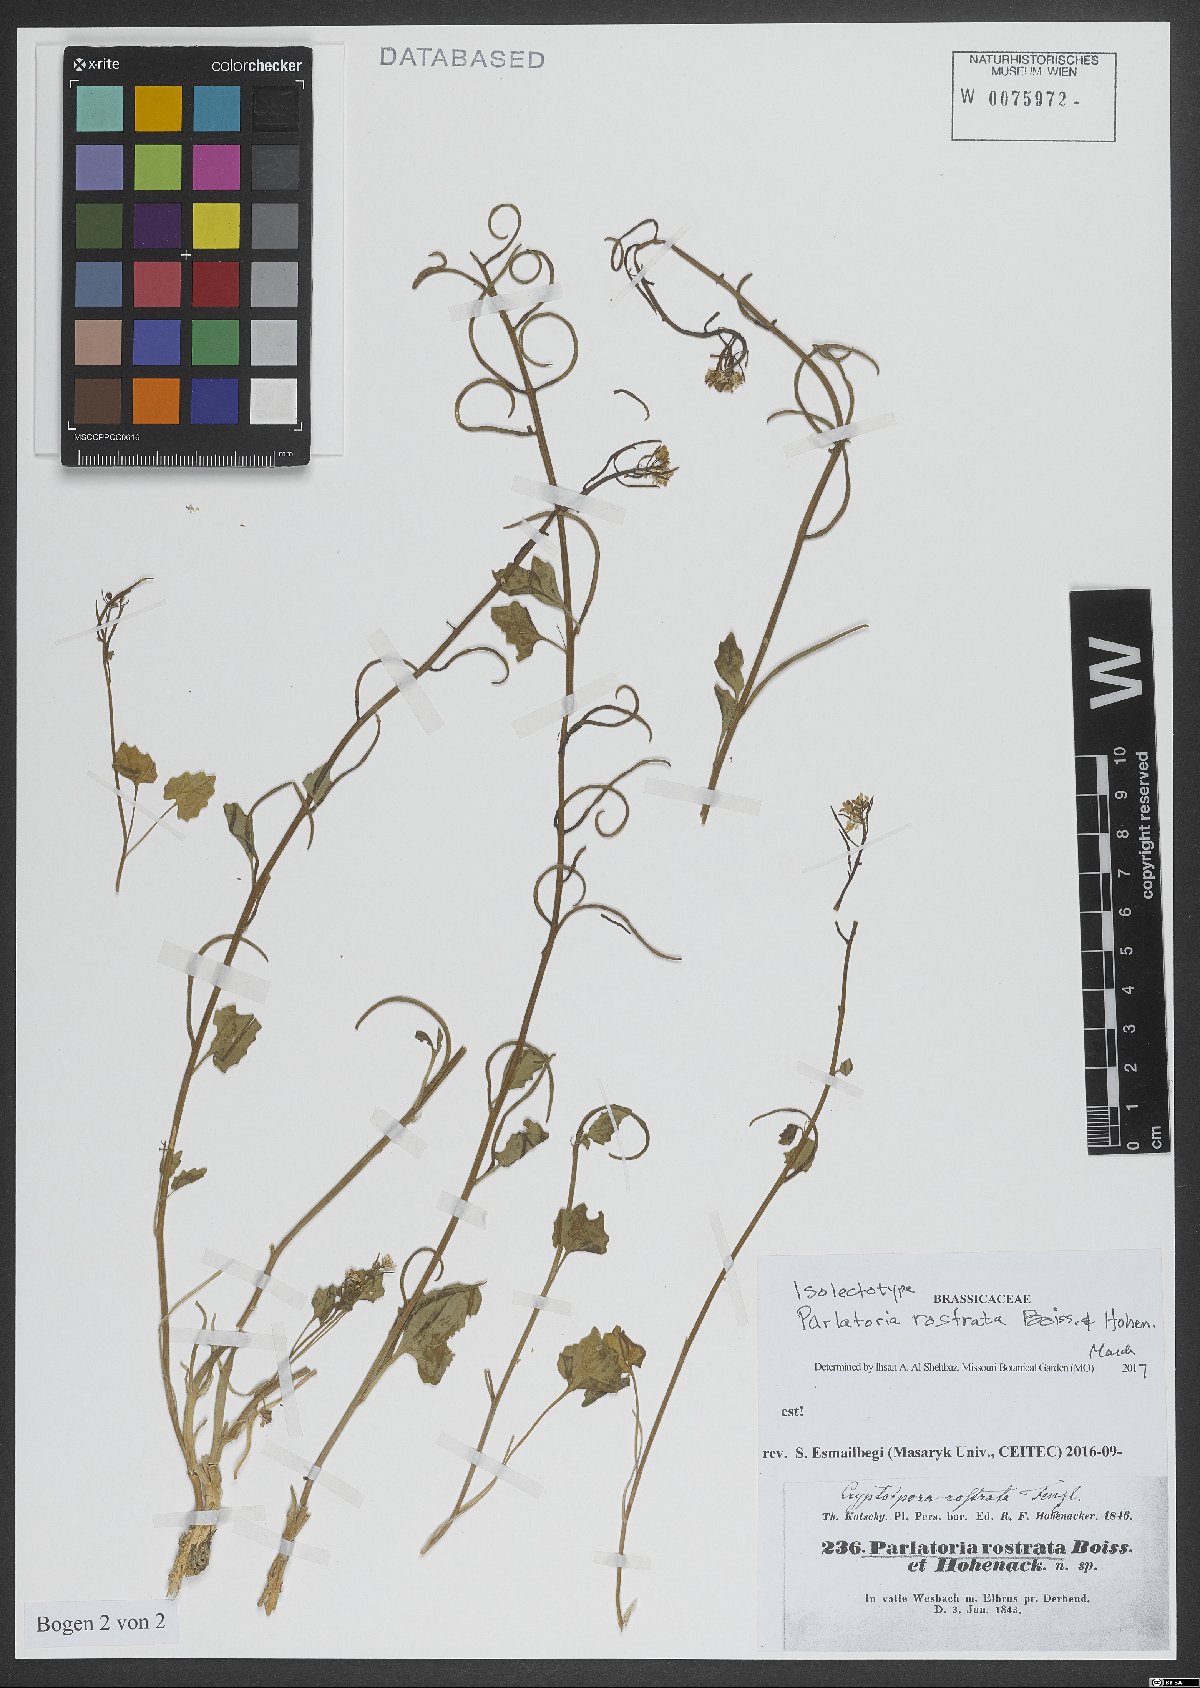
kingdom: Plantae
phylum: Tracheophyta
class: Magnoliopsida
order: Brassicales
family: Brassicaceae
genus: Lysakia
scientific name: Lysakia rostrata
